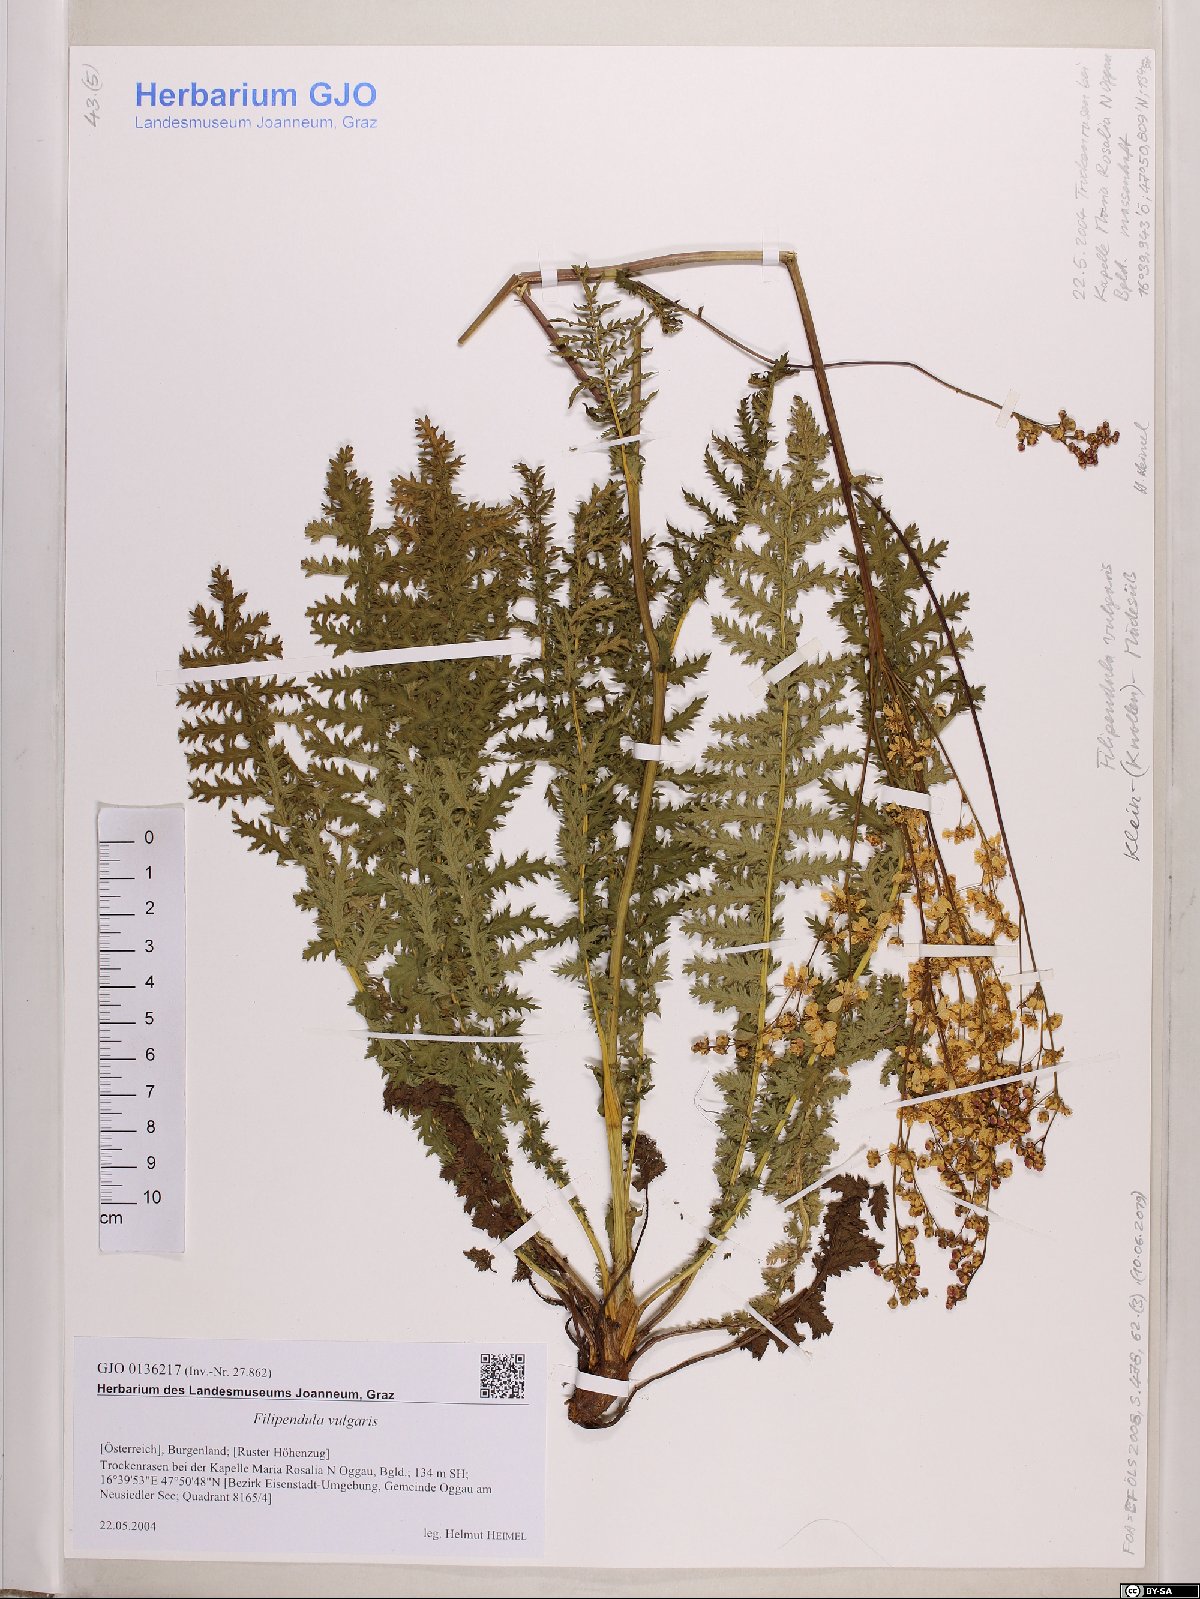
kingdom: Plantae
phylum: Tracheophyta
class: Magnoliopsida
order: Rosales
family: Rosaceae
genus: Filipendula
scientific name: Filipendula vulgaris
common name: Dropwort
